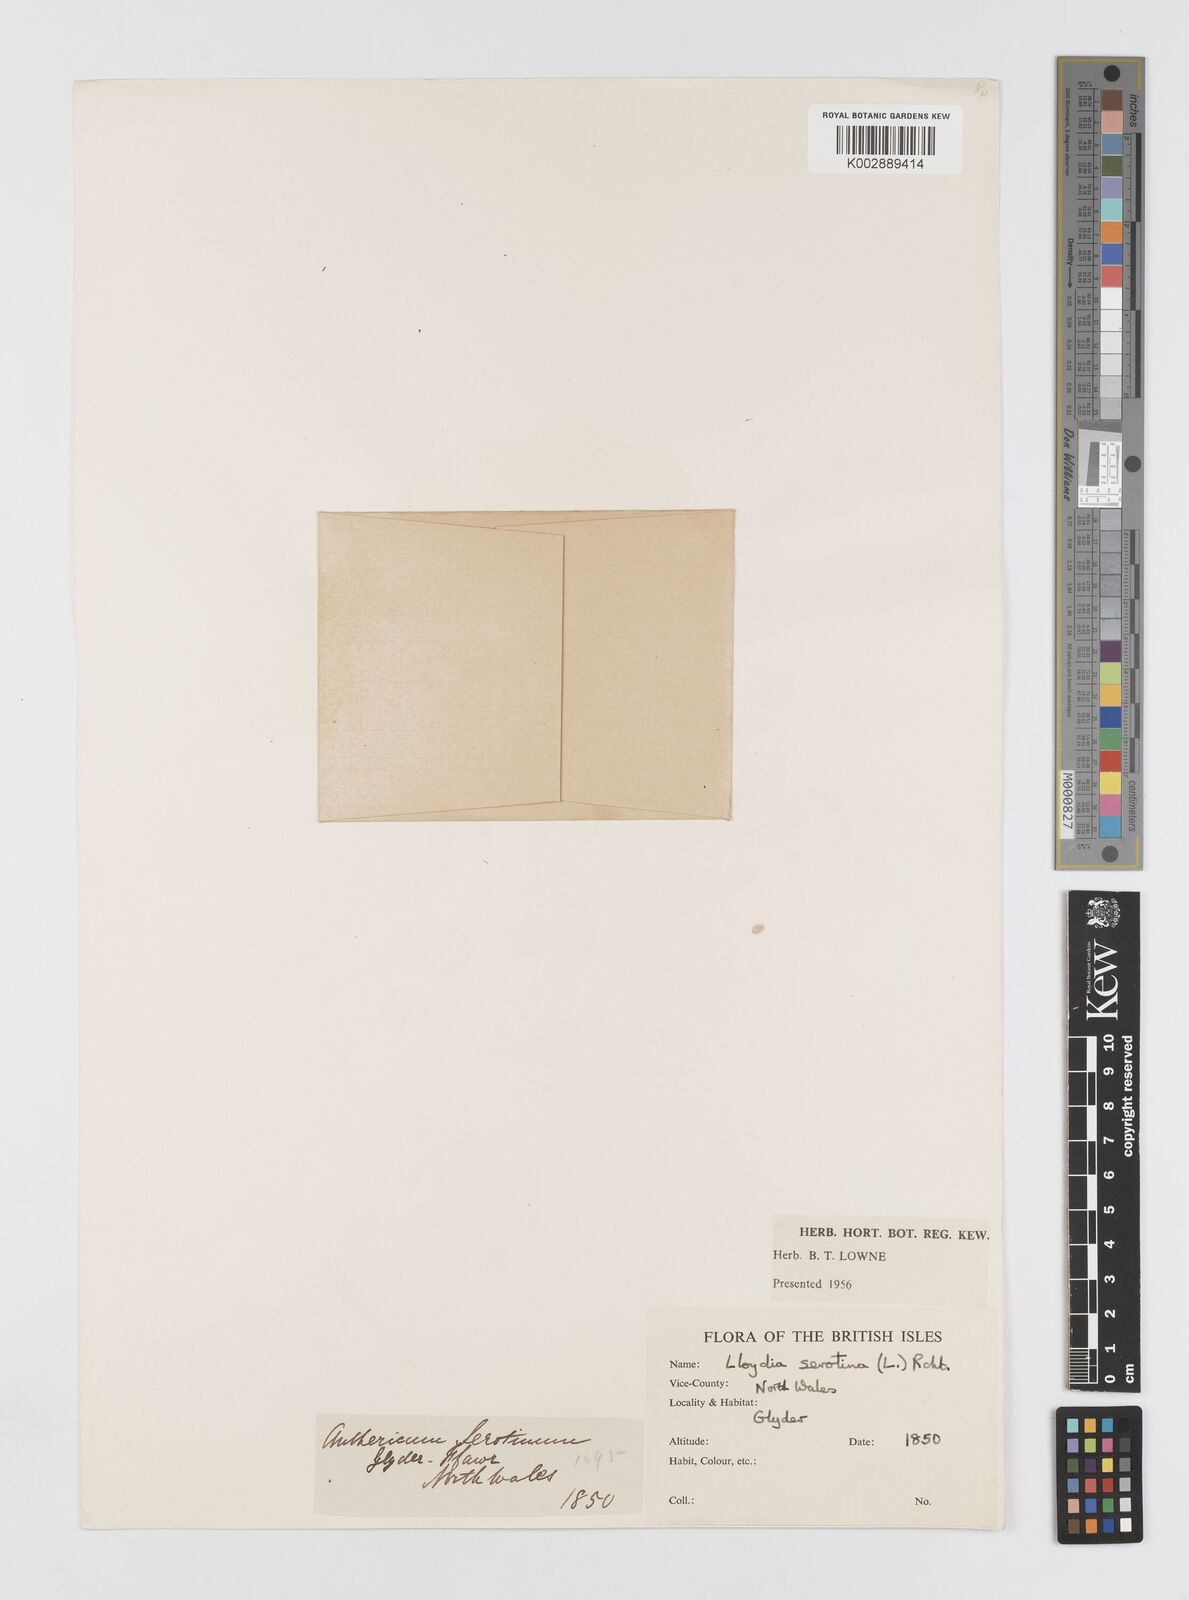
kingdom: Plantae
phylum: Tracheophyta
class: Liliopsida
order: Liliales
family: Liliaceae
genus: Gagea
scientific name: Gagea
